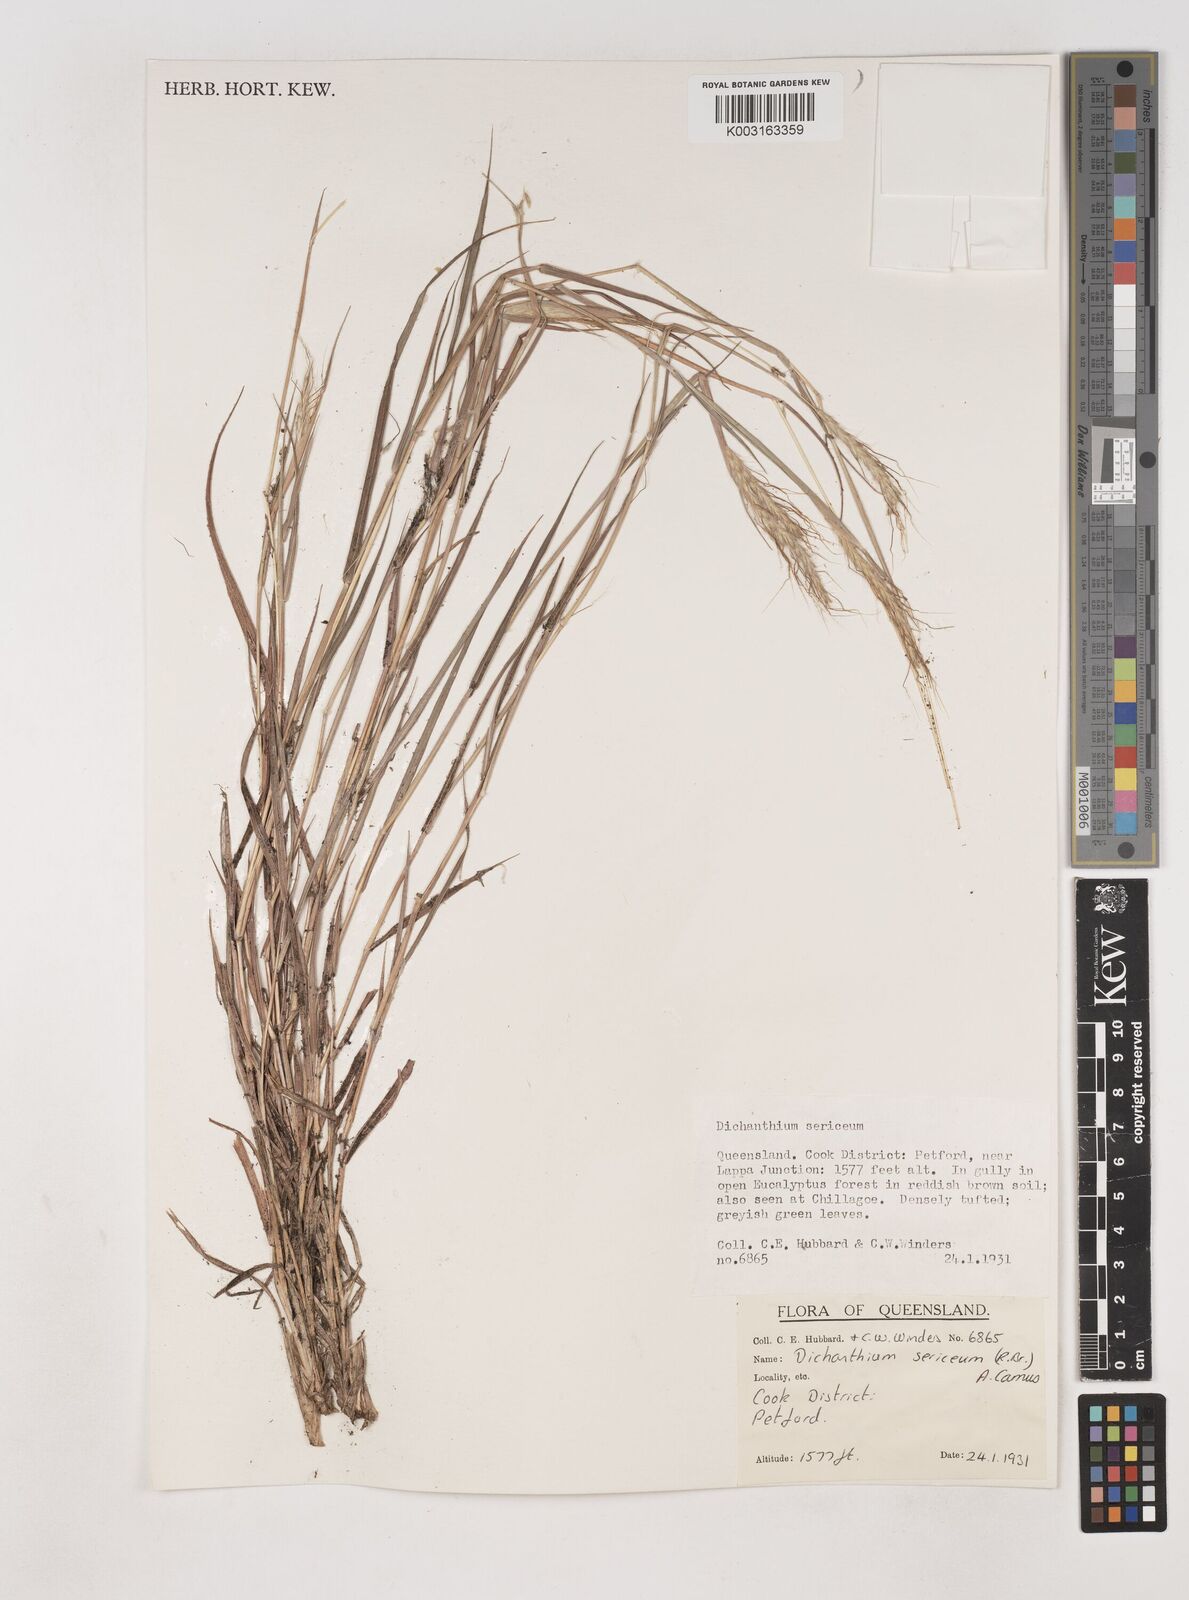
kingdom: Plantae
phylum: Tracheophyta
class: Liliopsida
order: Poales
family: Poaceae
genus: Dichanthium
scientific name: Dichanthium sericeum
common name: Silky bluestem
